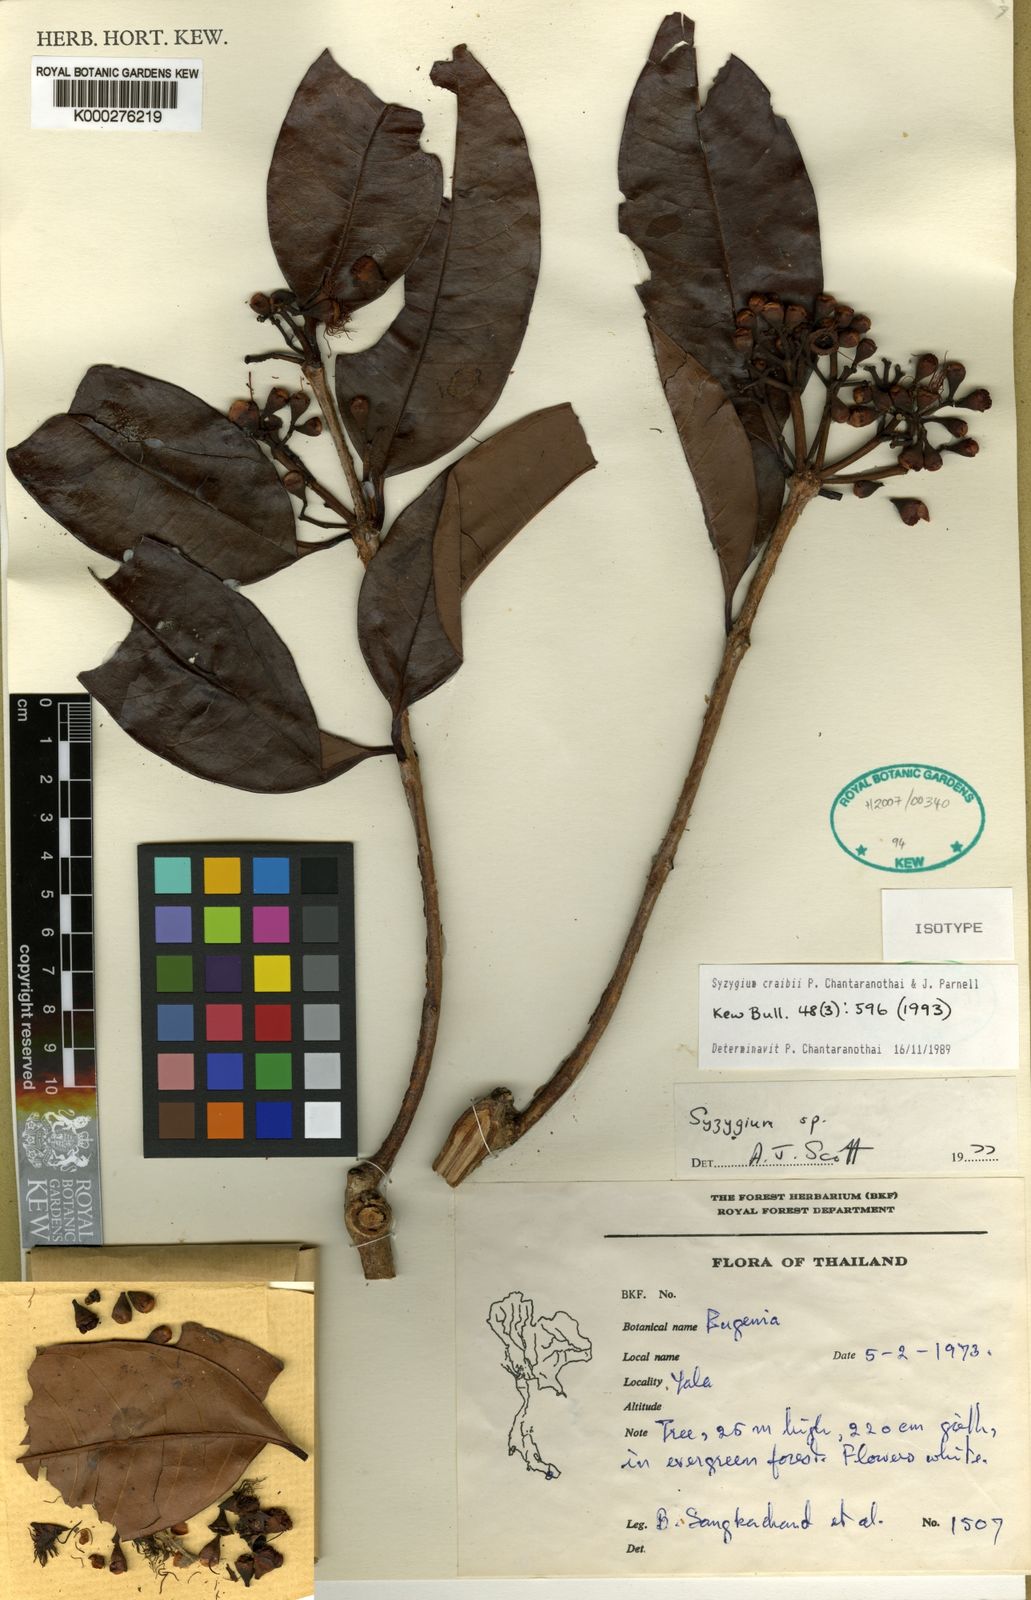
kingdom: Plantae
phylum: Tracheophyta
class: Magnoliopsida
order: Myrtales
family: Myrtaceae
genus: Syzygium
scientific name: Syzygium craibii
